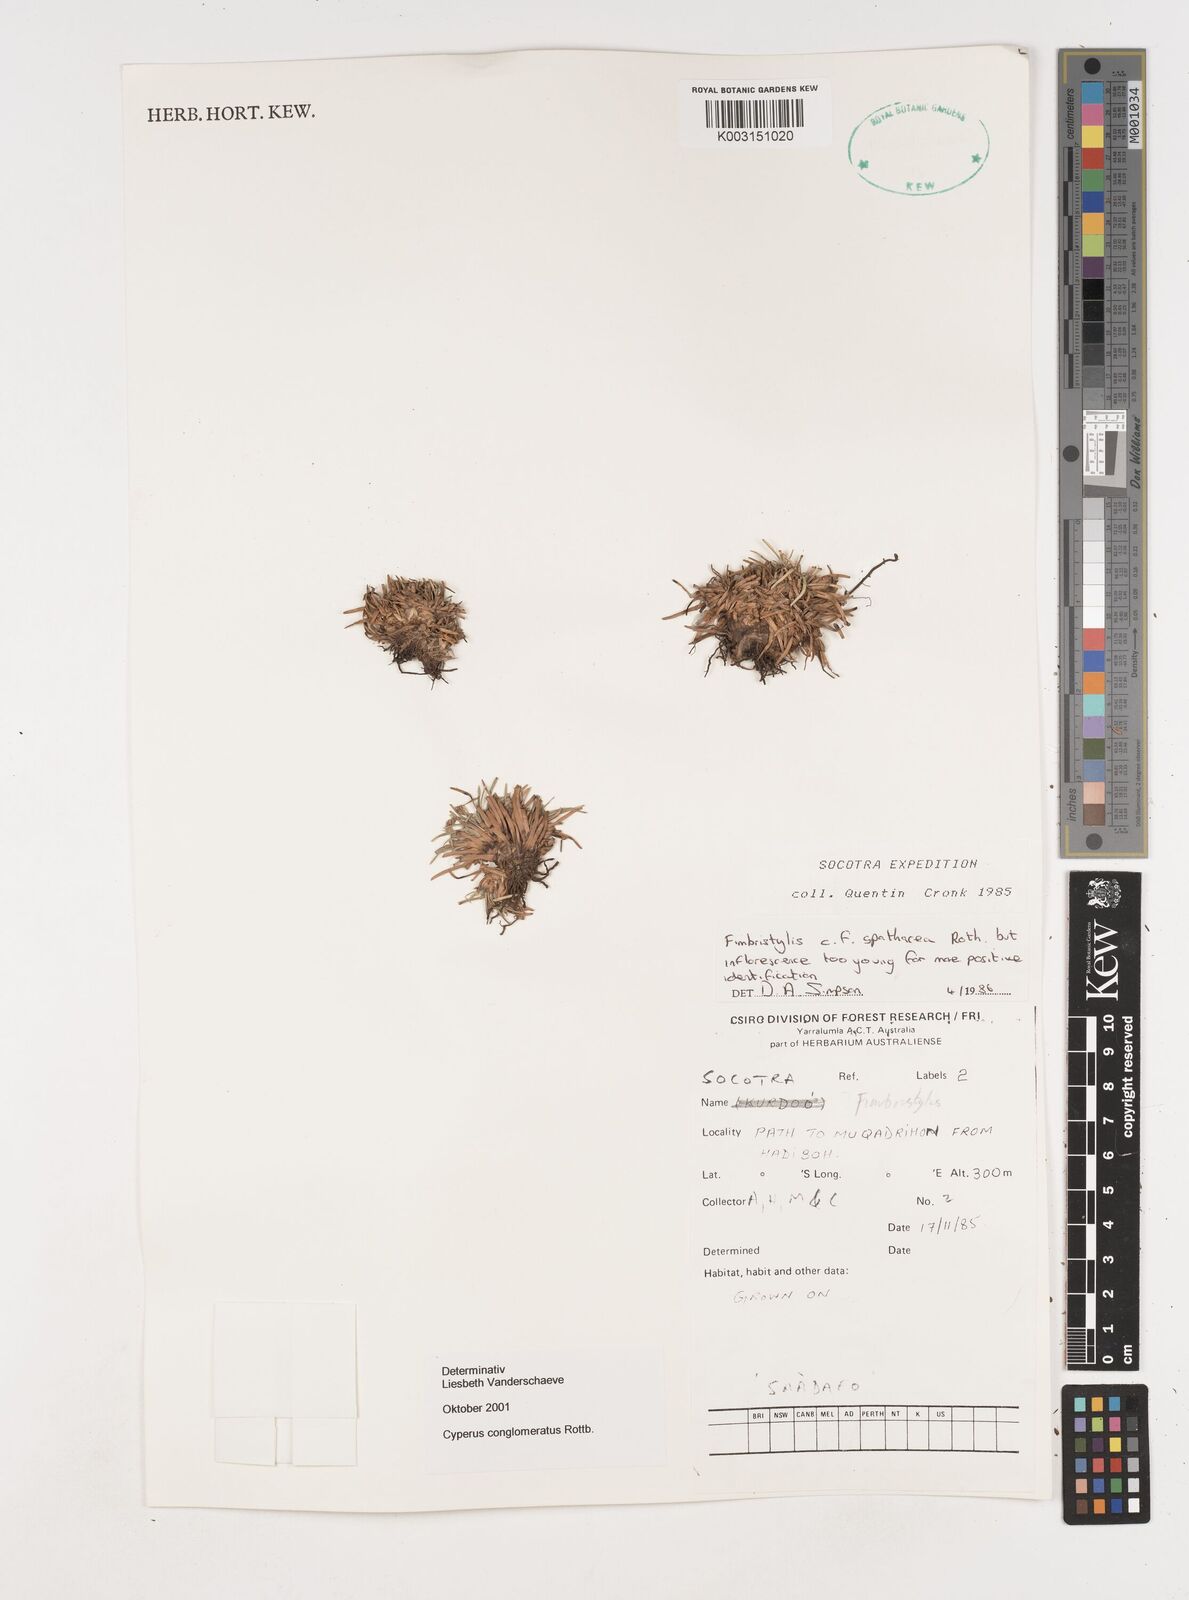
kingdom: Plantae
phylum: Tracheophyta
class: Liliopsida
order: Poales
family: Cyperaceae
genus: Cyperus
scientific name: Cyperus conglomeratus
